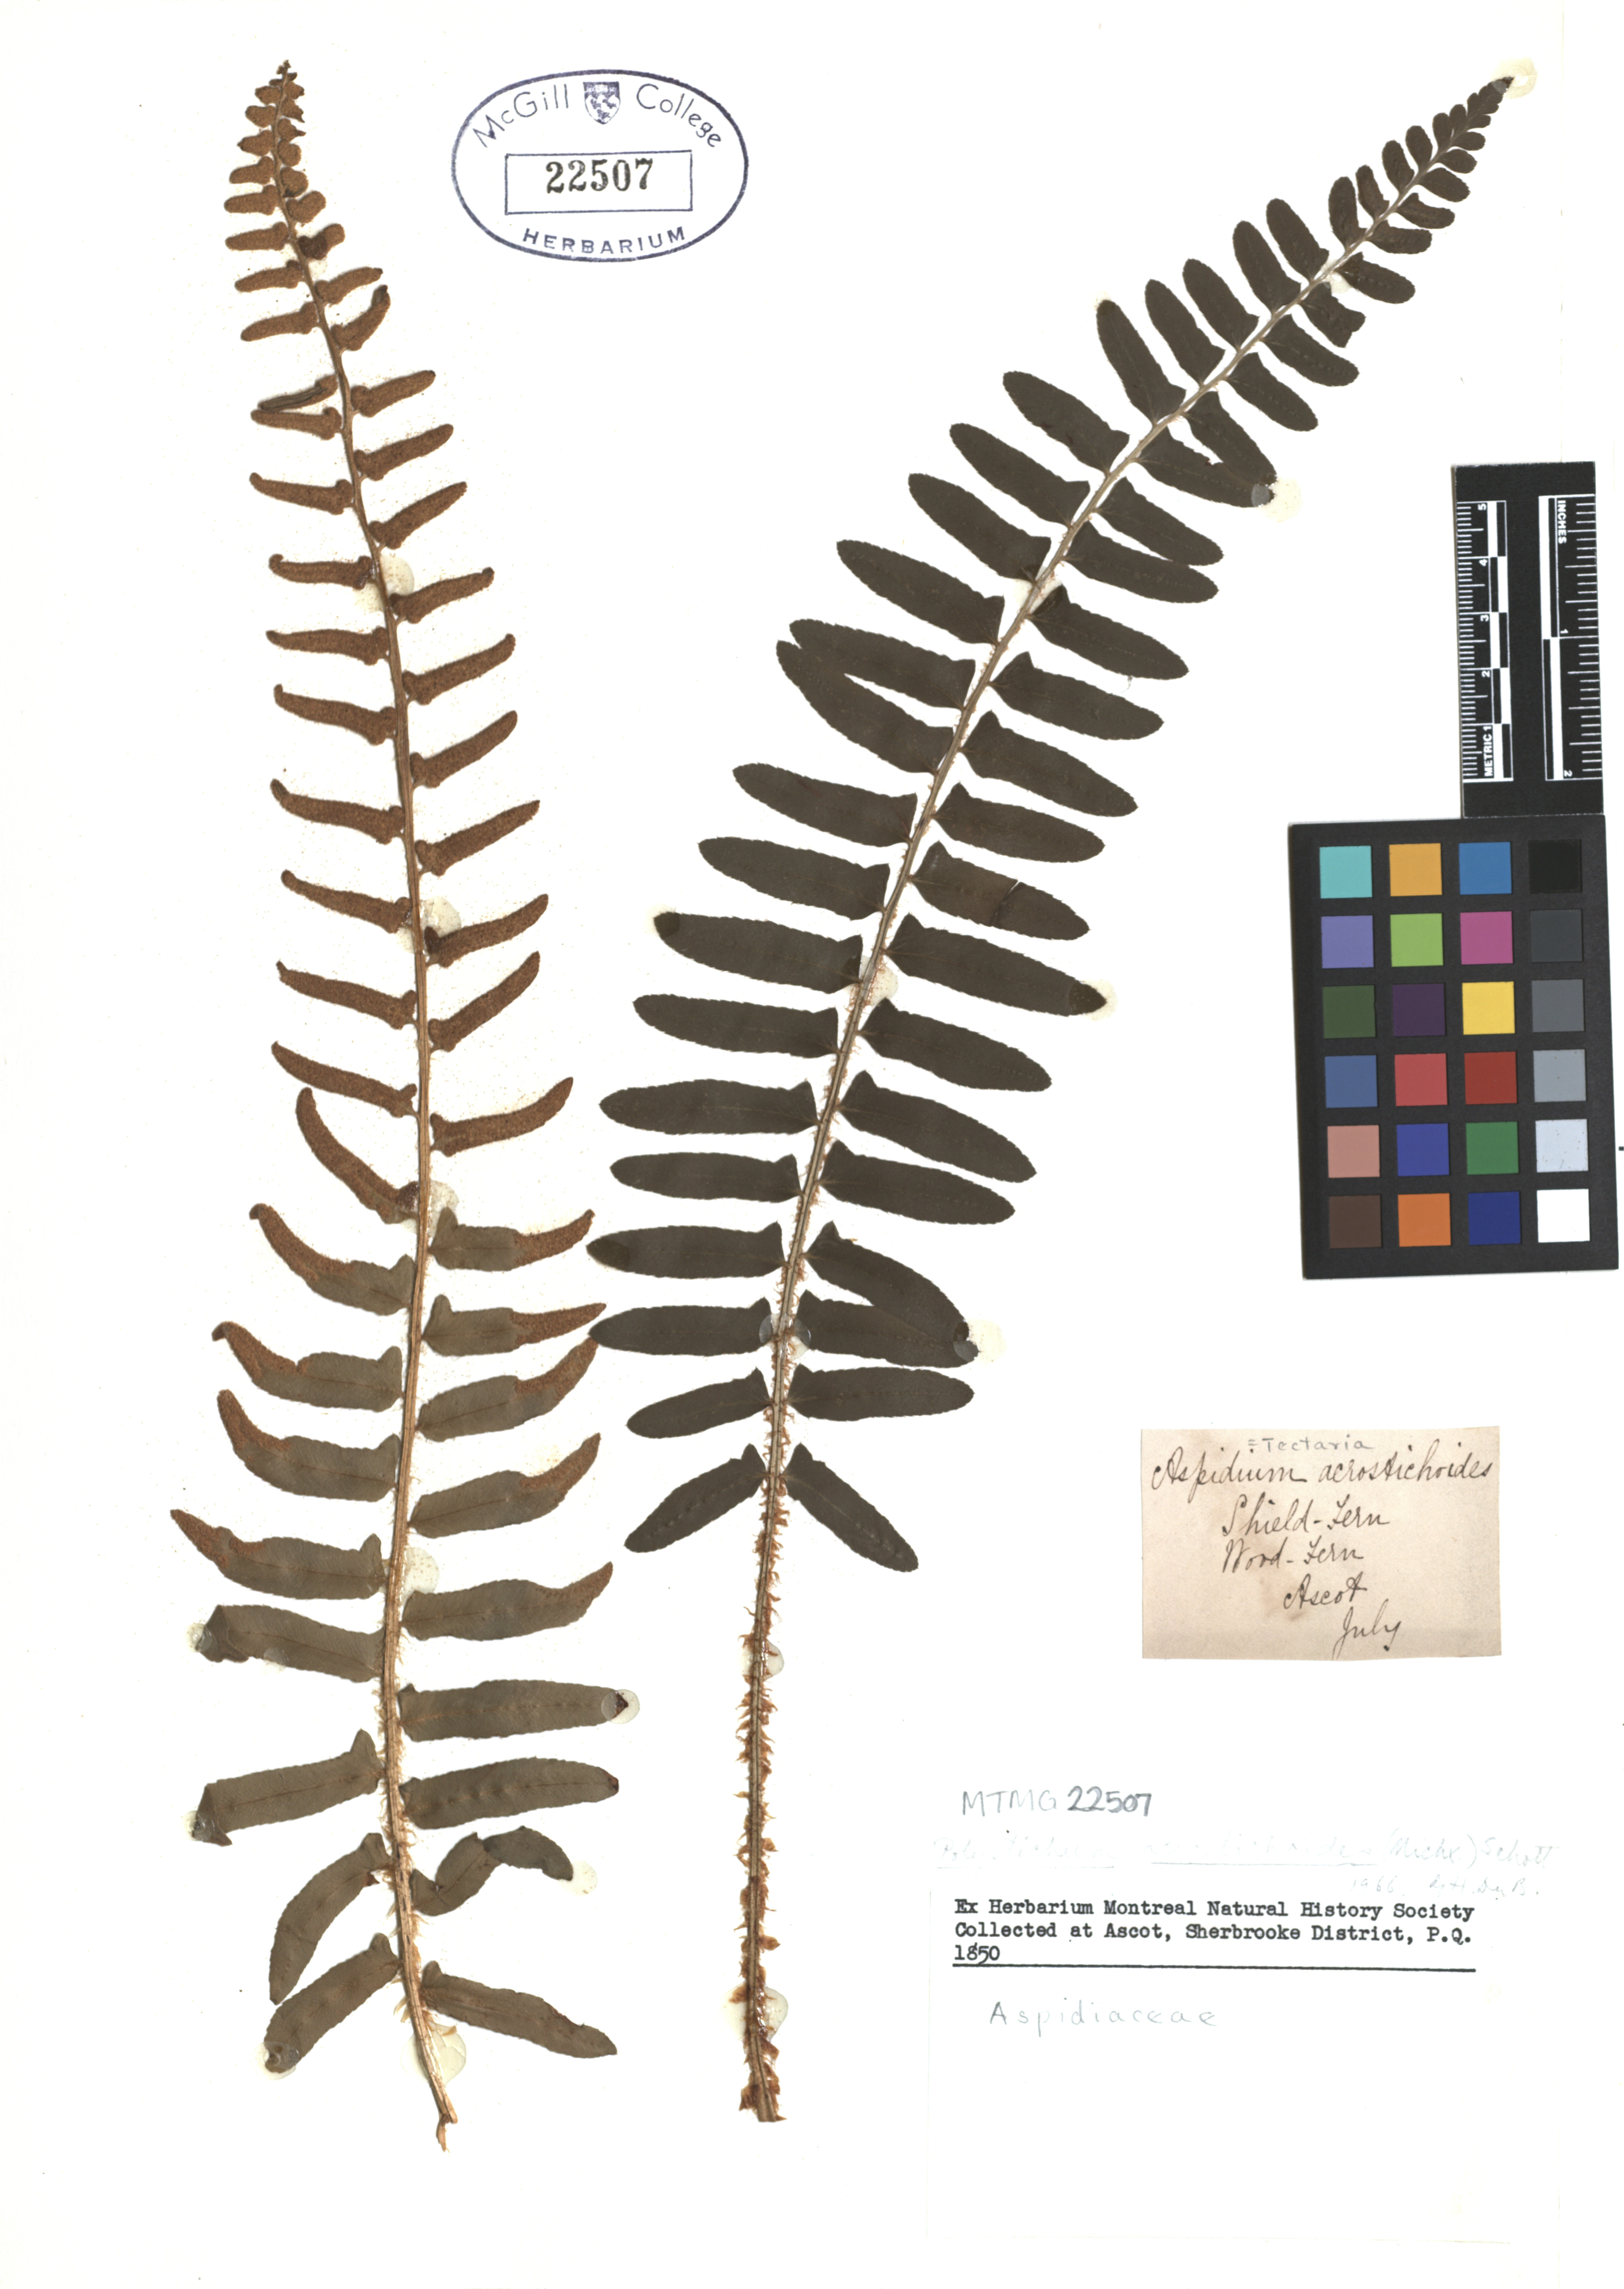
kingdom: Plantae
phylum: Tracheophyta
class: Polypodiopsida
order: Polypodiales
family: Dryopteridaceae
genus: Polystichum
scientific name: Polystichum acrostichoides
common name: Christmas fern
